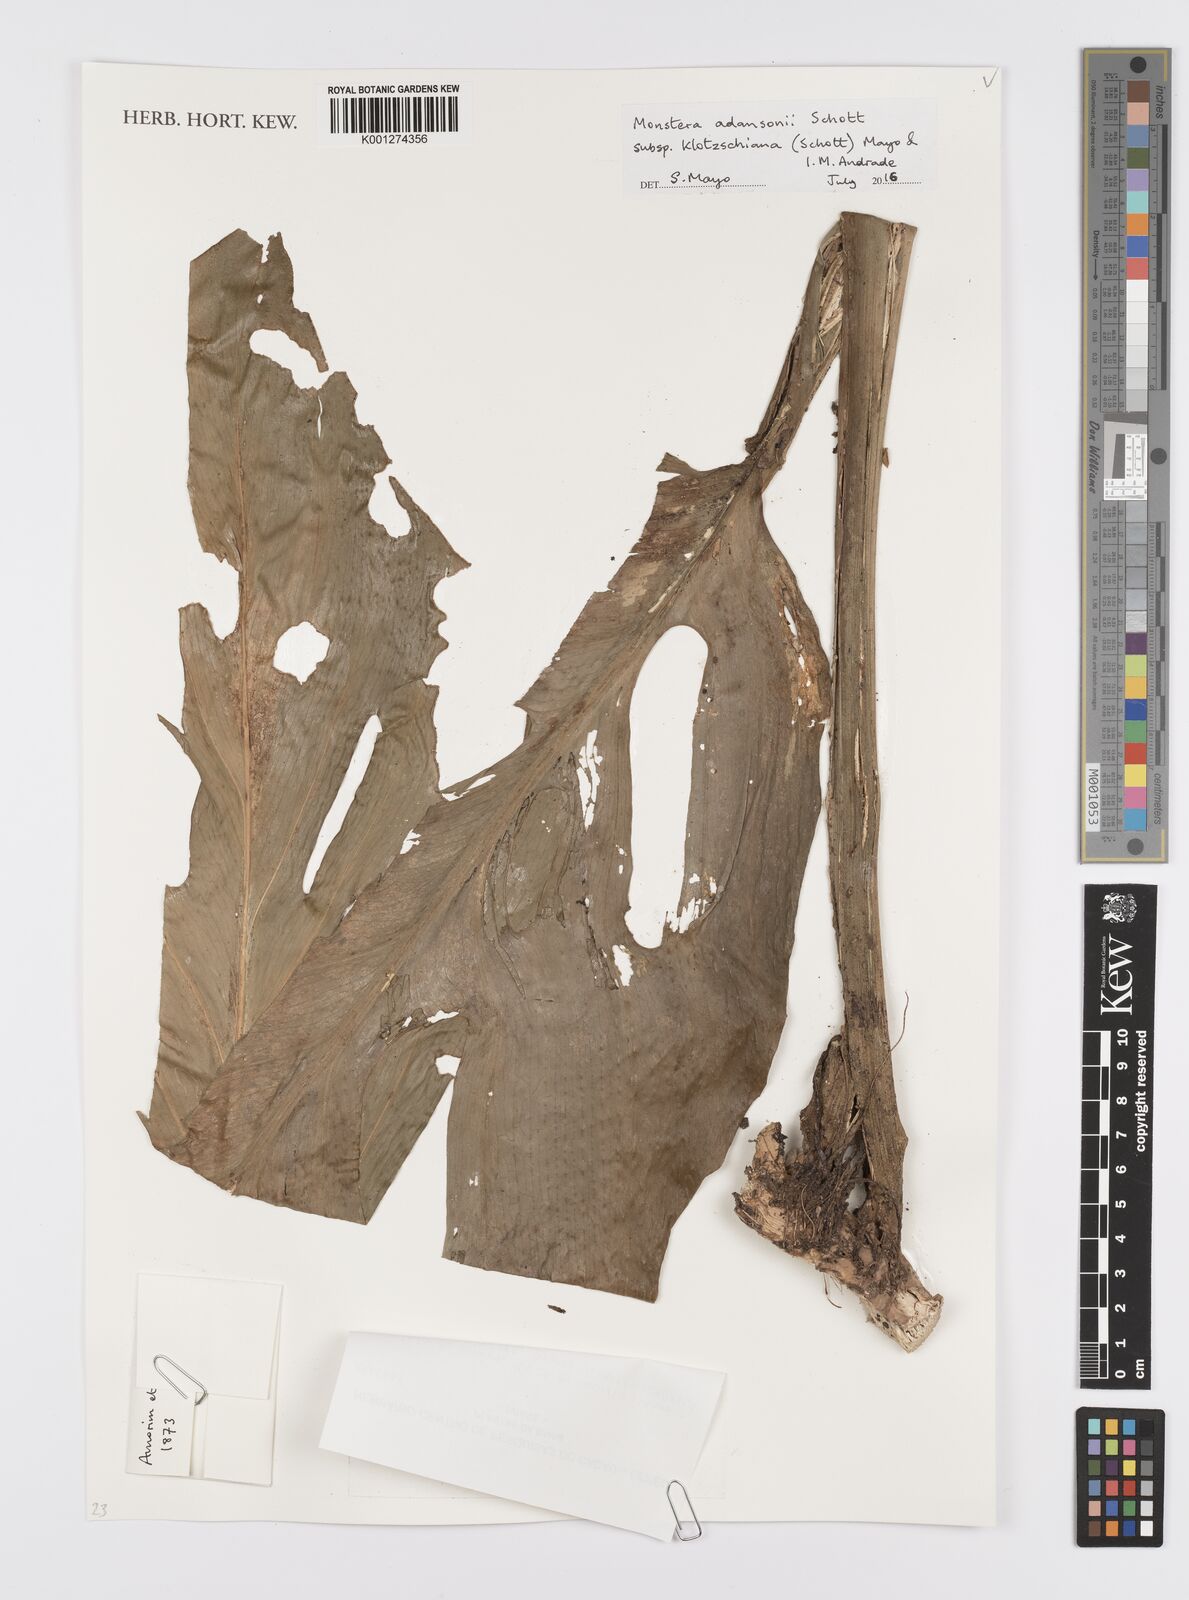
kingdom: Plantae
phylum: Tracheophyta
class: Liliopsida
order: Alismatales
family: Araceae
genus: Monstera
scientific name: Monstera adansonii
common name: Tarovine
